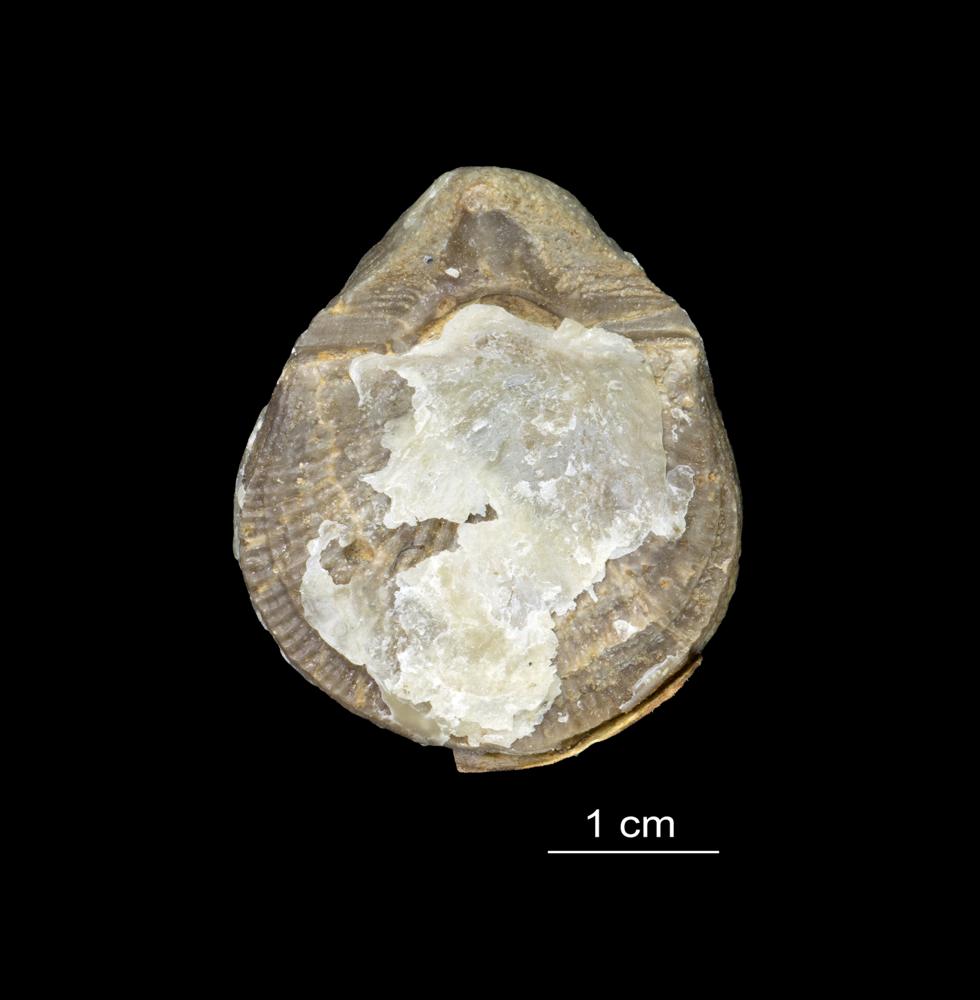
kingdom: Animalia
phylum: Brachiopoda
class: Rhynchonellata
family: Clitambonitidae
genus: Vellamo
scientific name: Vellamo Orthis verneuili
